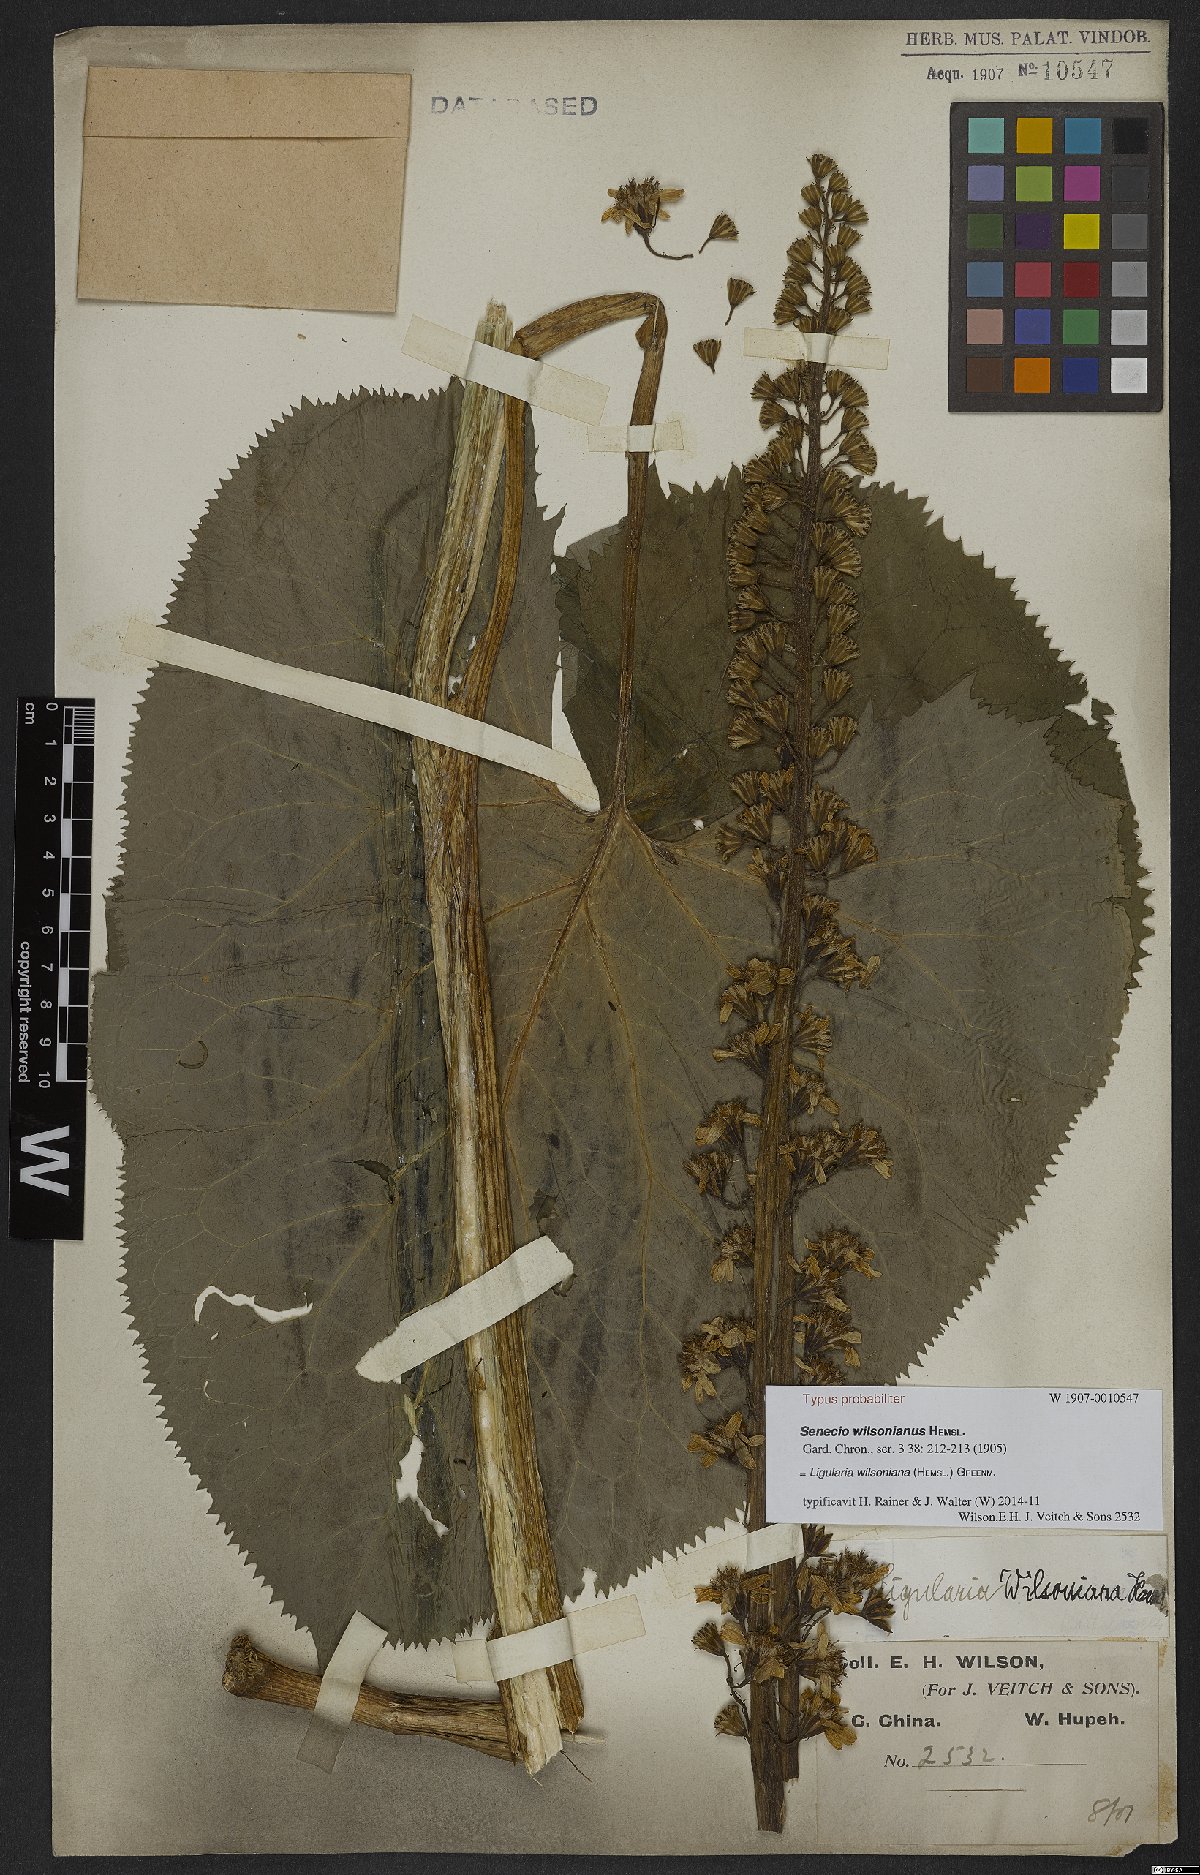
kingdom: Plantae
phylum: Tracheophyta
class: Magnoliopsida
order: Asterales
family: Asteraceae
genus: Ligularia
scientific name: Ligularia wilsoniana
